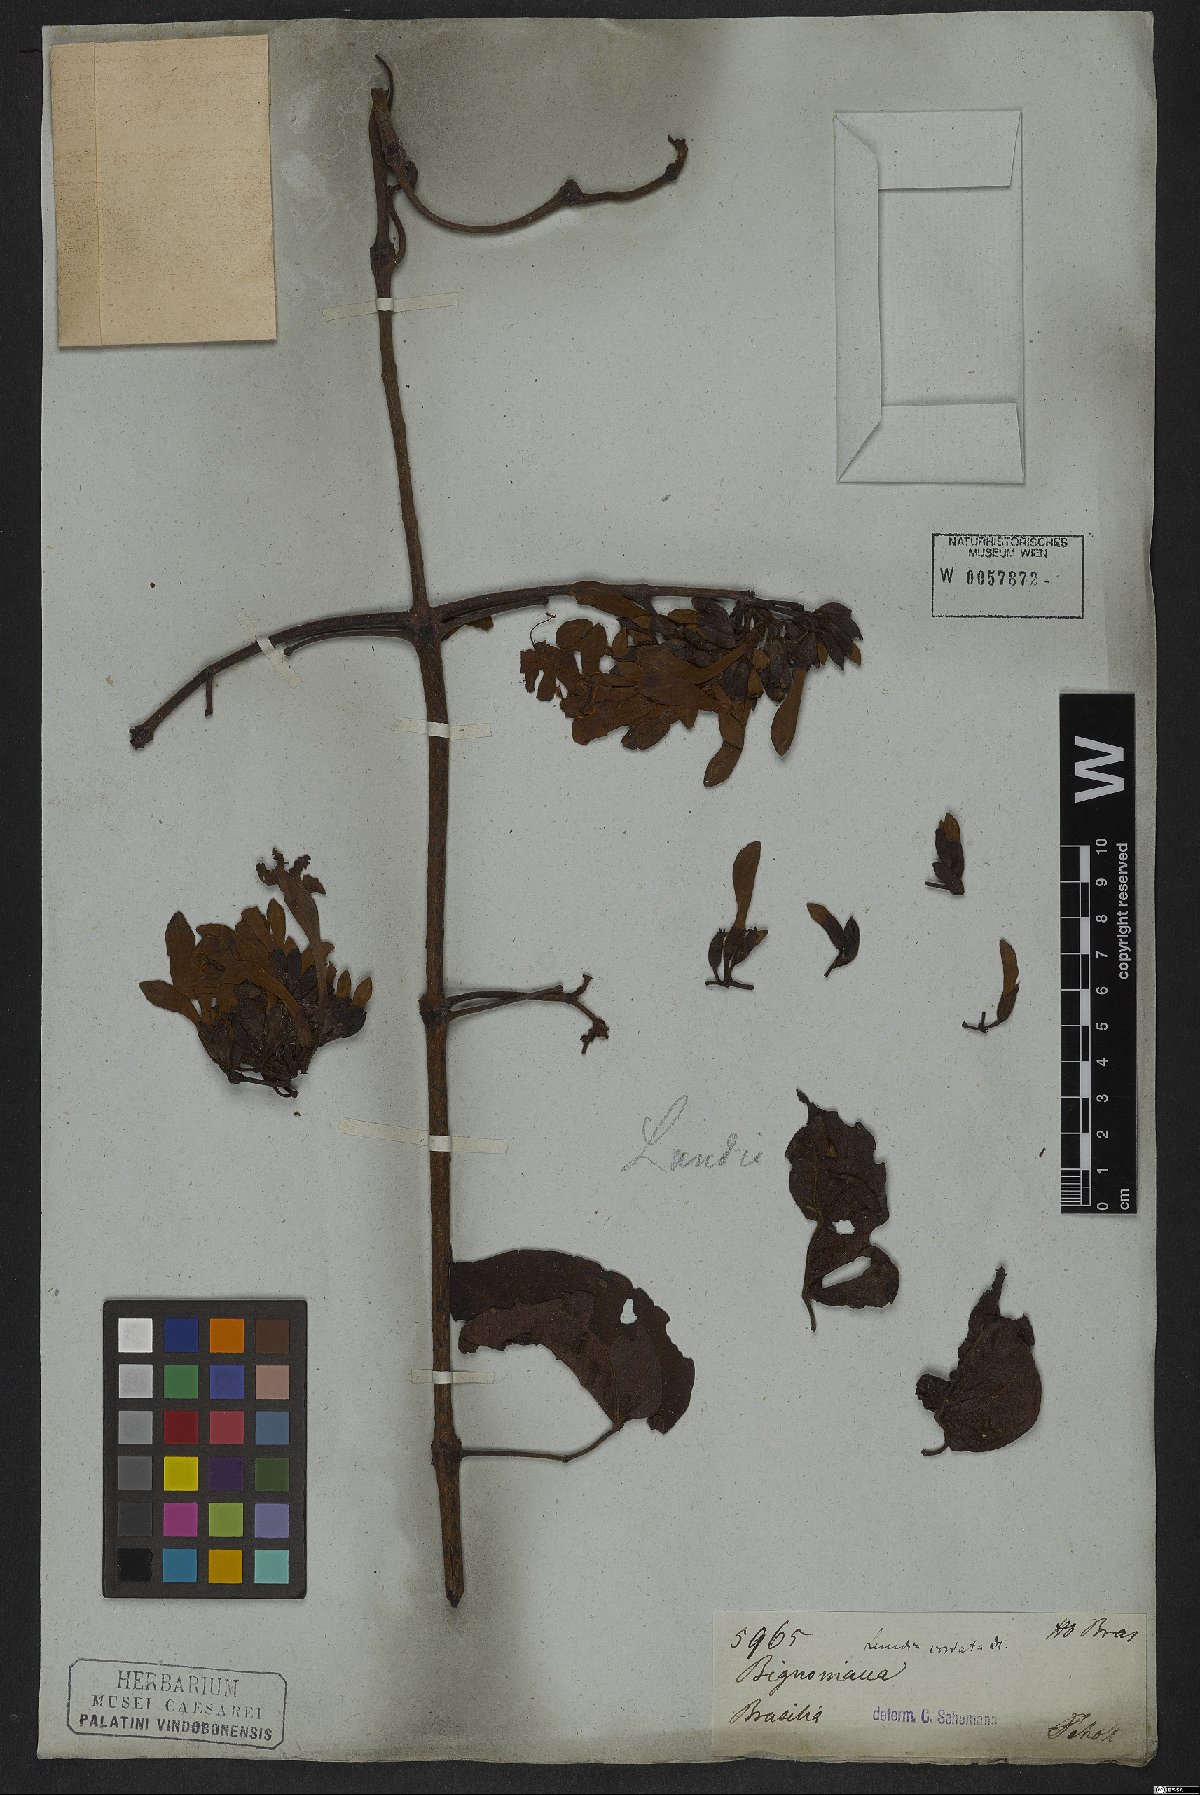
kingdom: Plantae
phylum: Tracheophyta
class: Magnoliopsida
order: Lamiales
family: Bignoniaceae
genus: Lundia
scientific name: Lundia corymbifera
